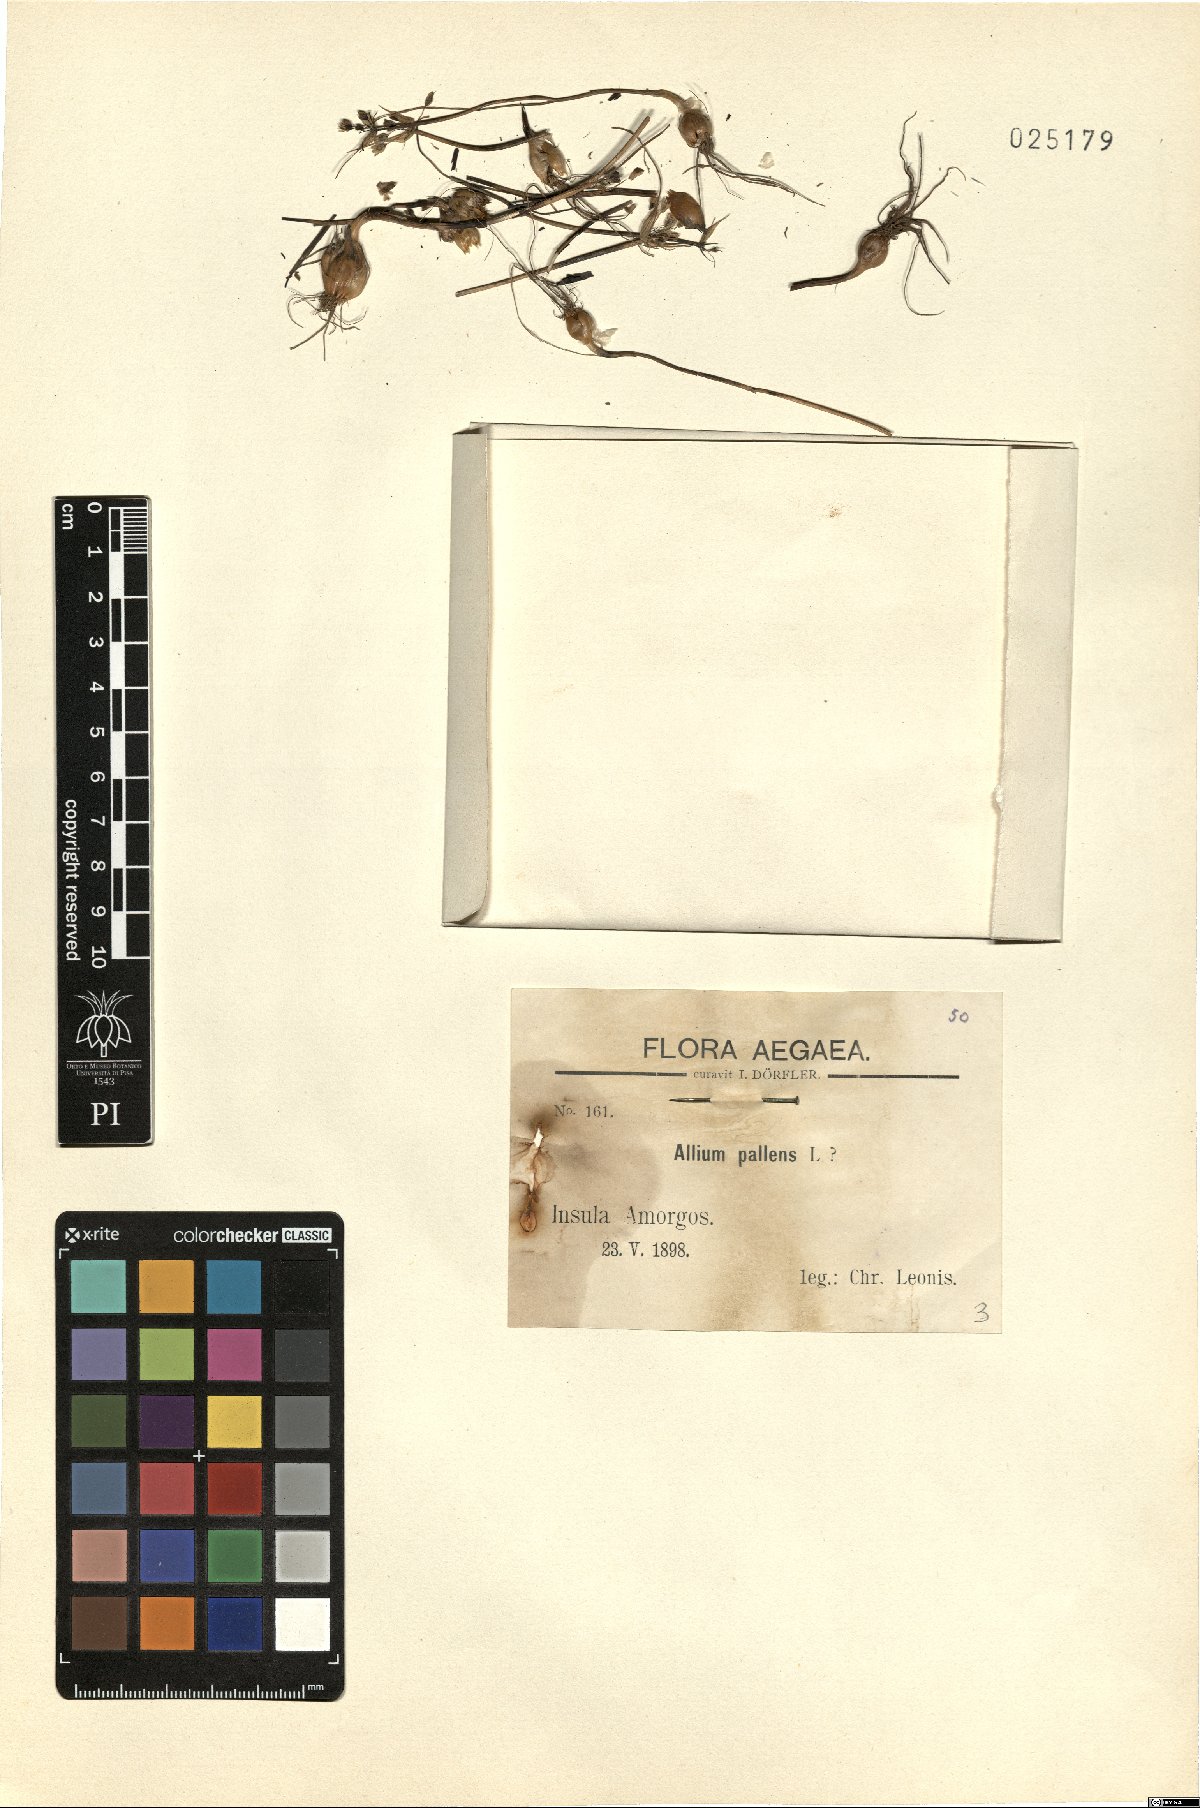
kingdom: Plantae
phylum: Tracheophyta
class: Liliopsida
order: Asparagales
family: Amaryllidaceae
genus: Allium
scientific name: Allium pallens
